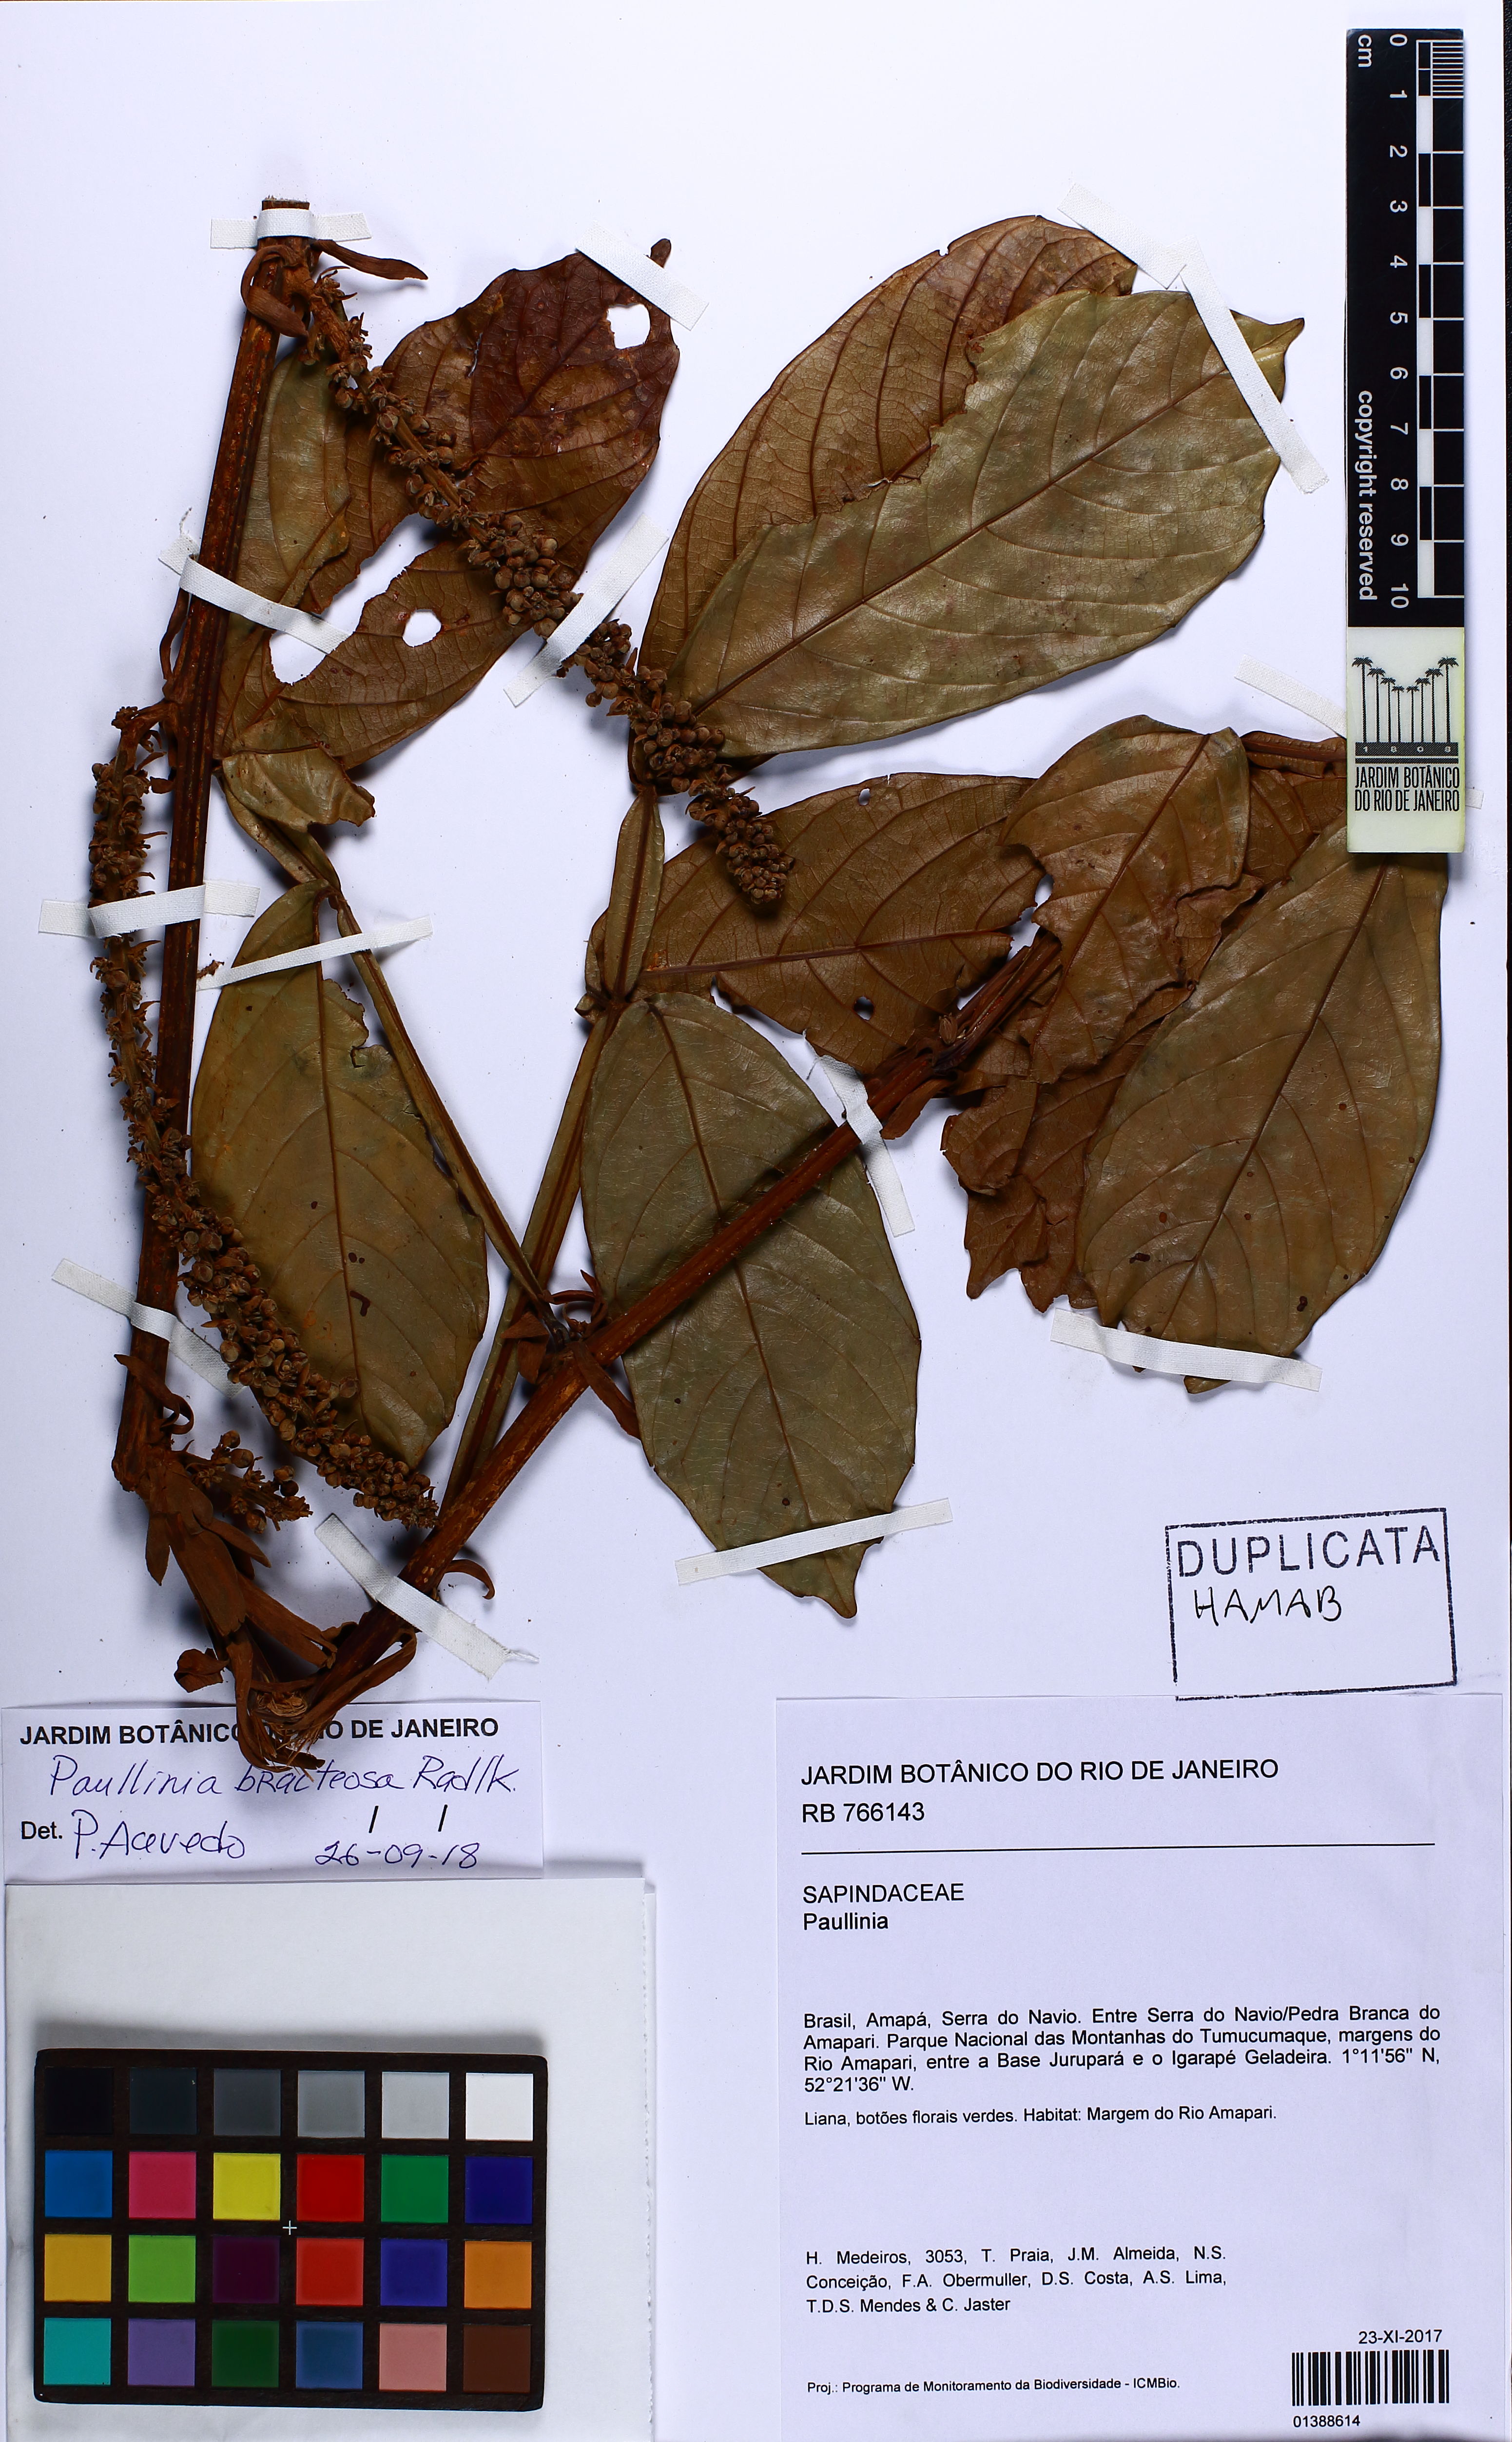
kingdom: Plantae
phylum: Tracheophyta
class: Magnoliopsida
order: Sapindales
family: Sapindaceae
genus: Paullinia
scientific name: Paullinia bracteosa
